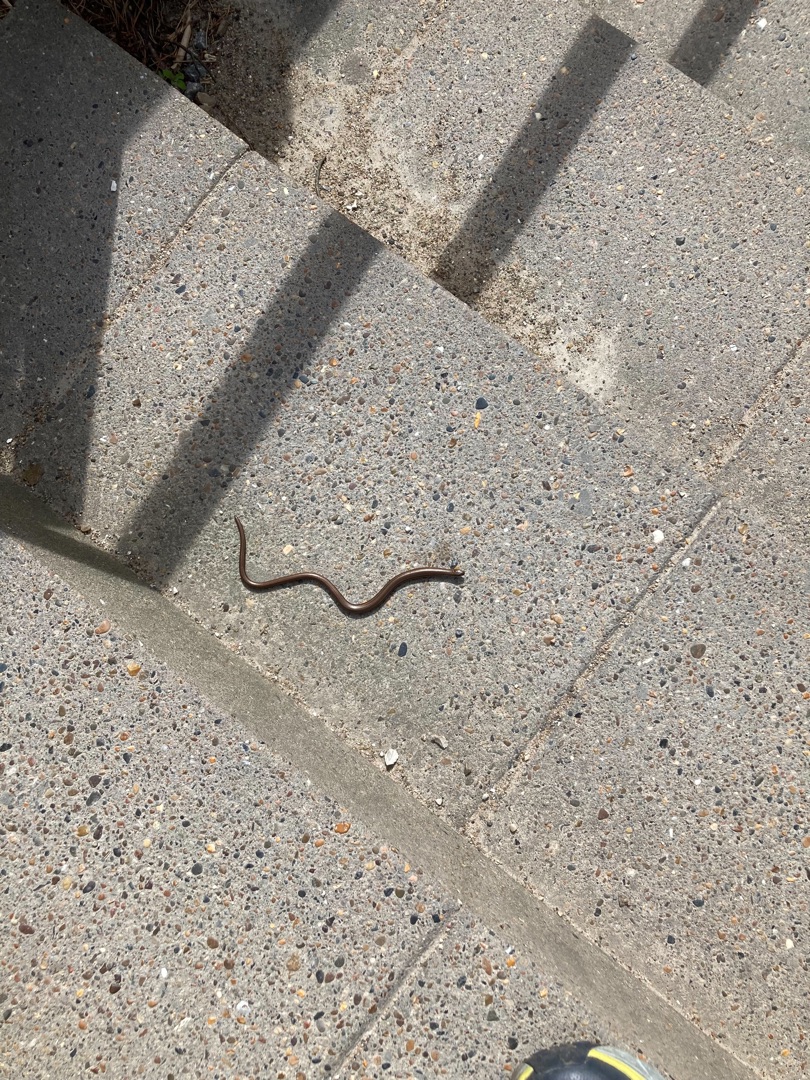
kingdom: Animalia
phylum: Chordata
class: Squamata
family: Anguidae
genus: Anguis
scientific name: Anguis fragilis
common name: Stålorm
